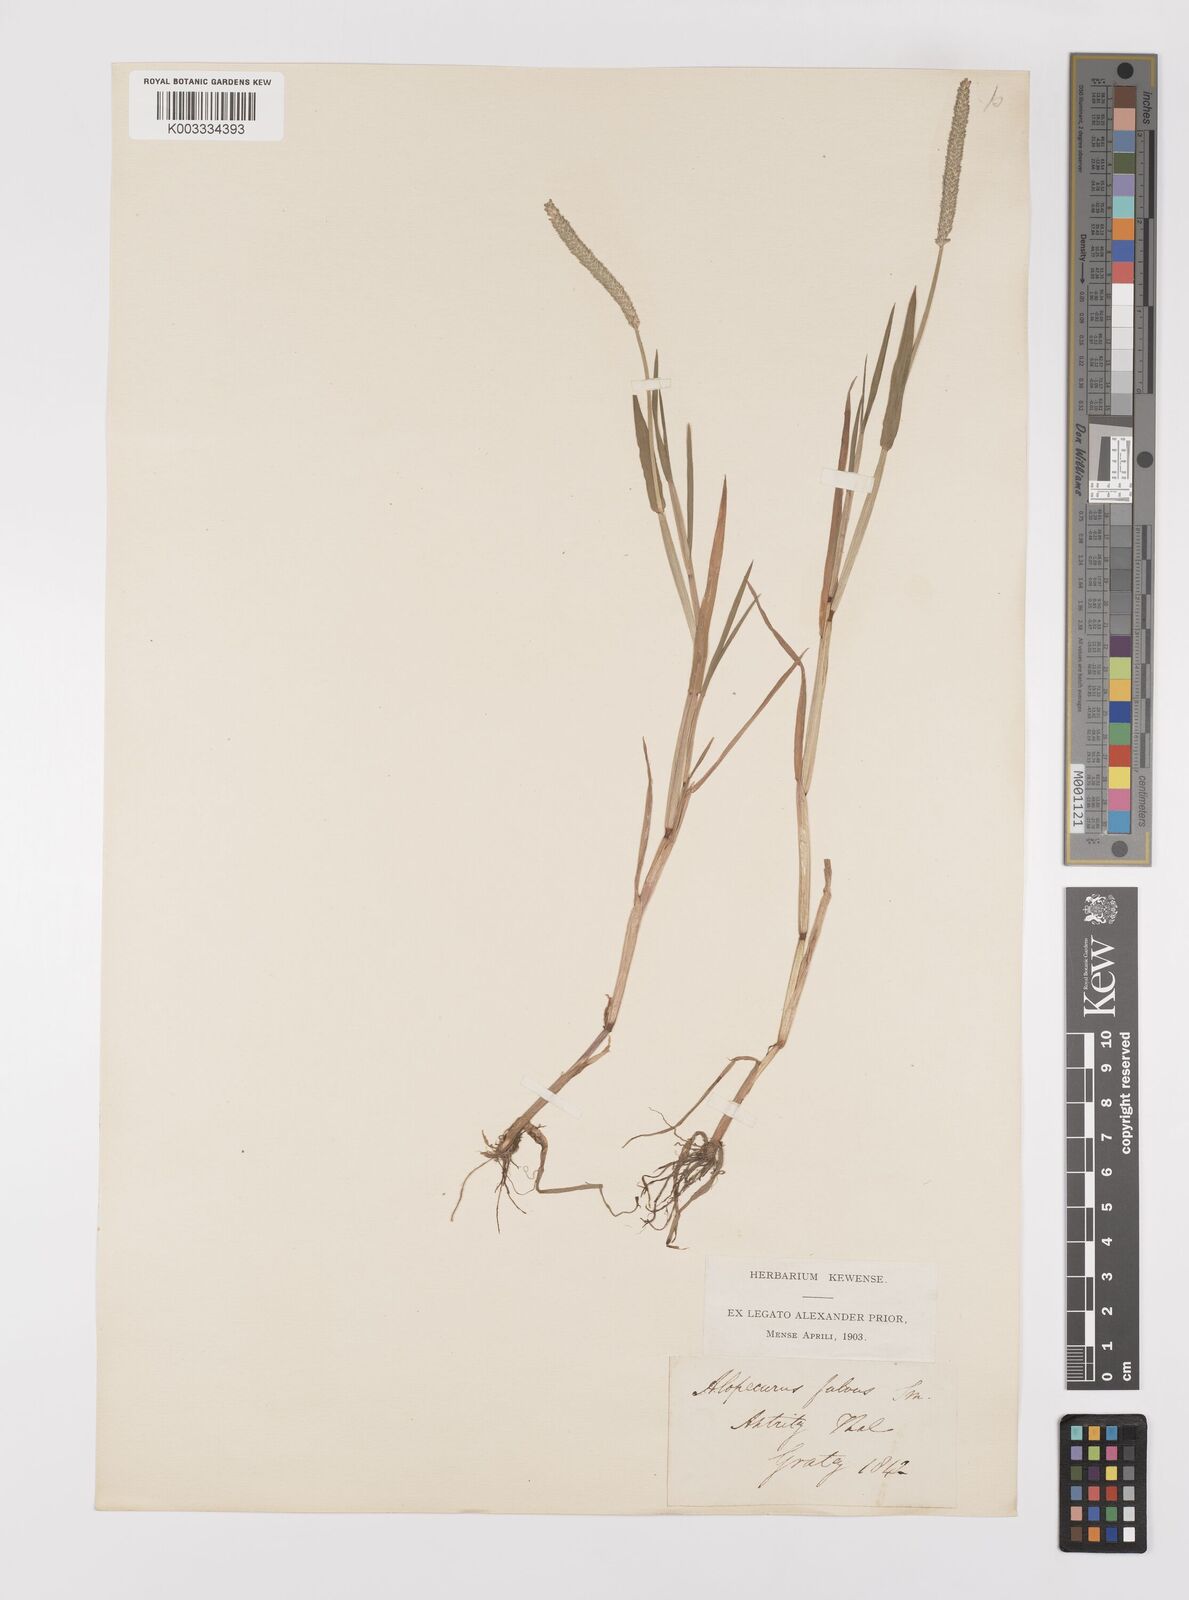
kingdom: Plantae
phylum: Tracheophyta
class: Liliopsida
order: Poales
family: Poaceae
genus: Alopecurus
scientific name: Alopecurus aequalis
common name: Orange foxtail
